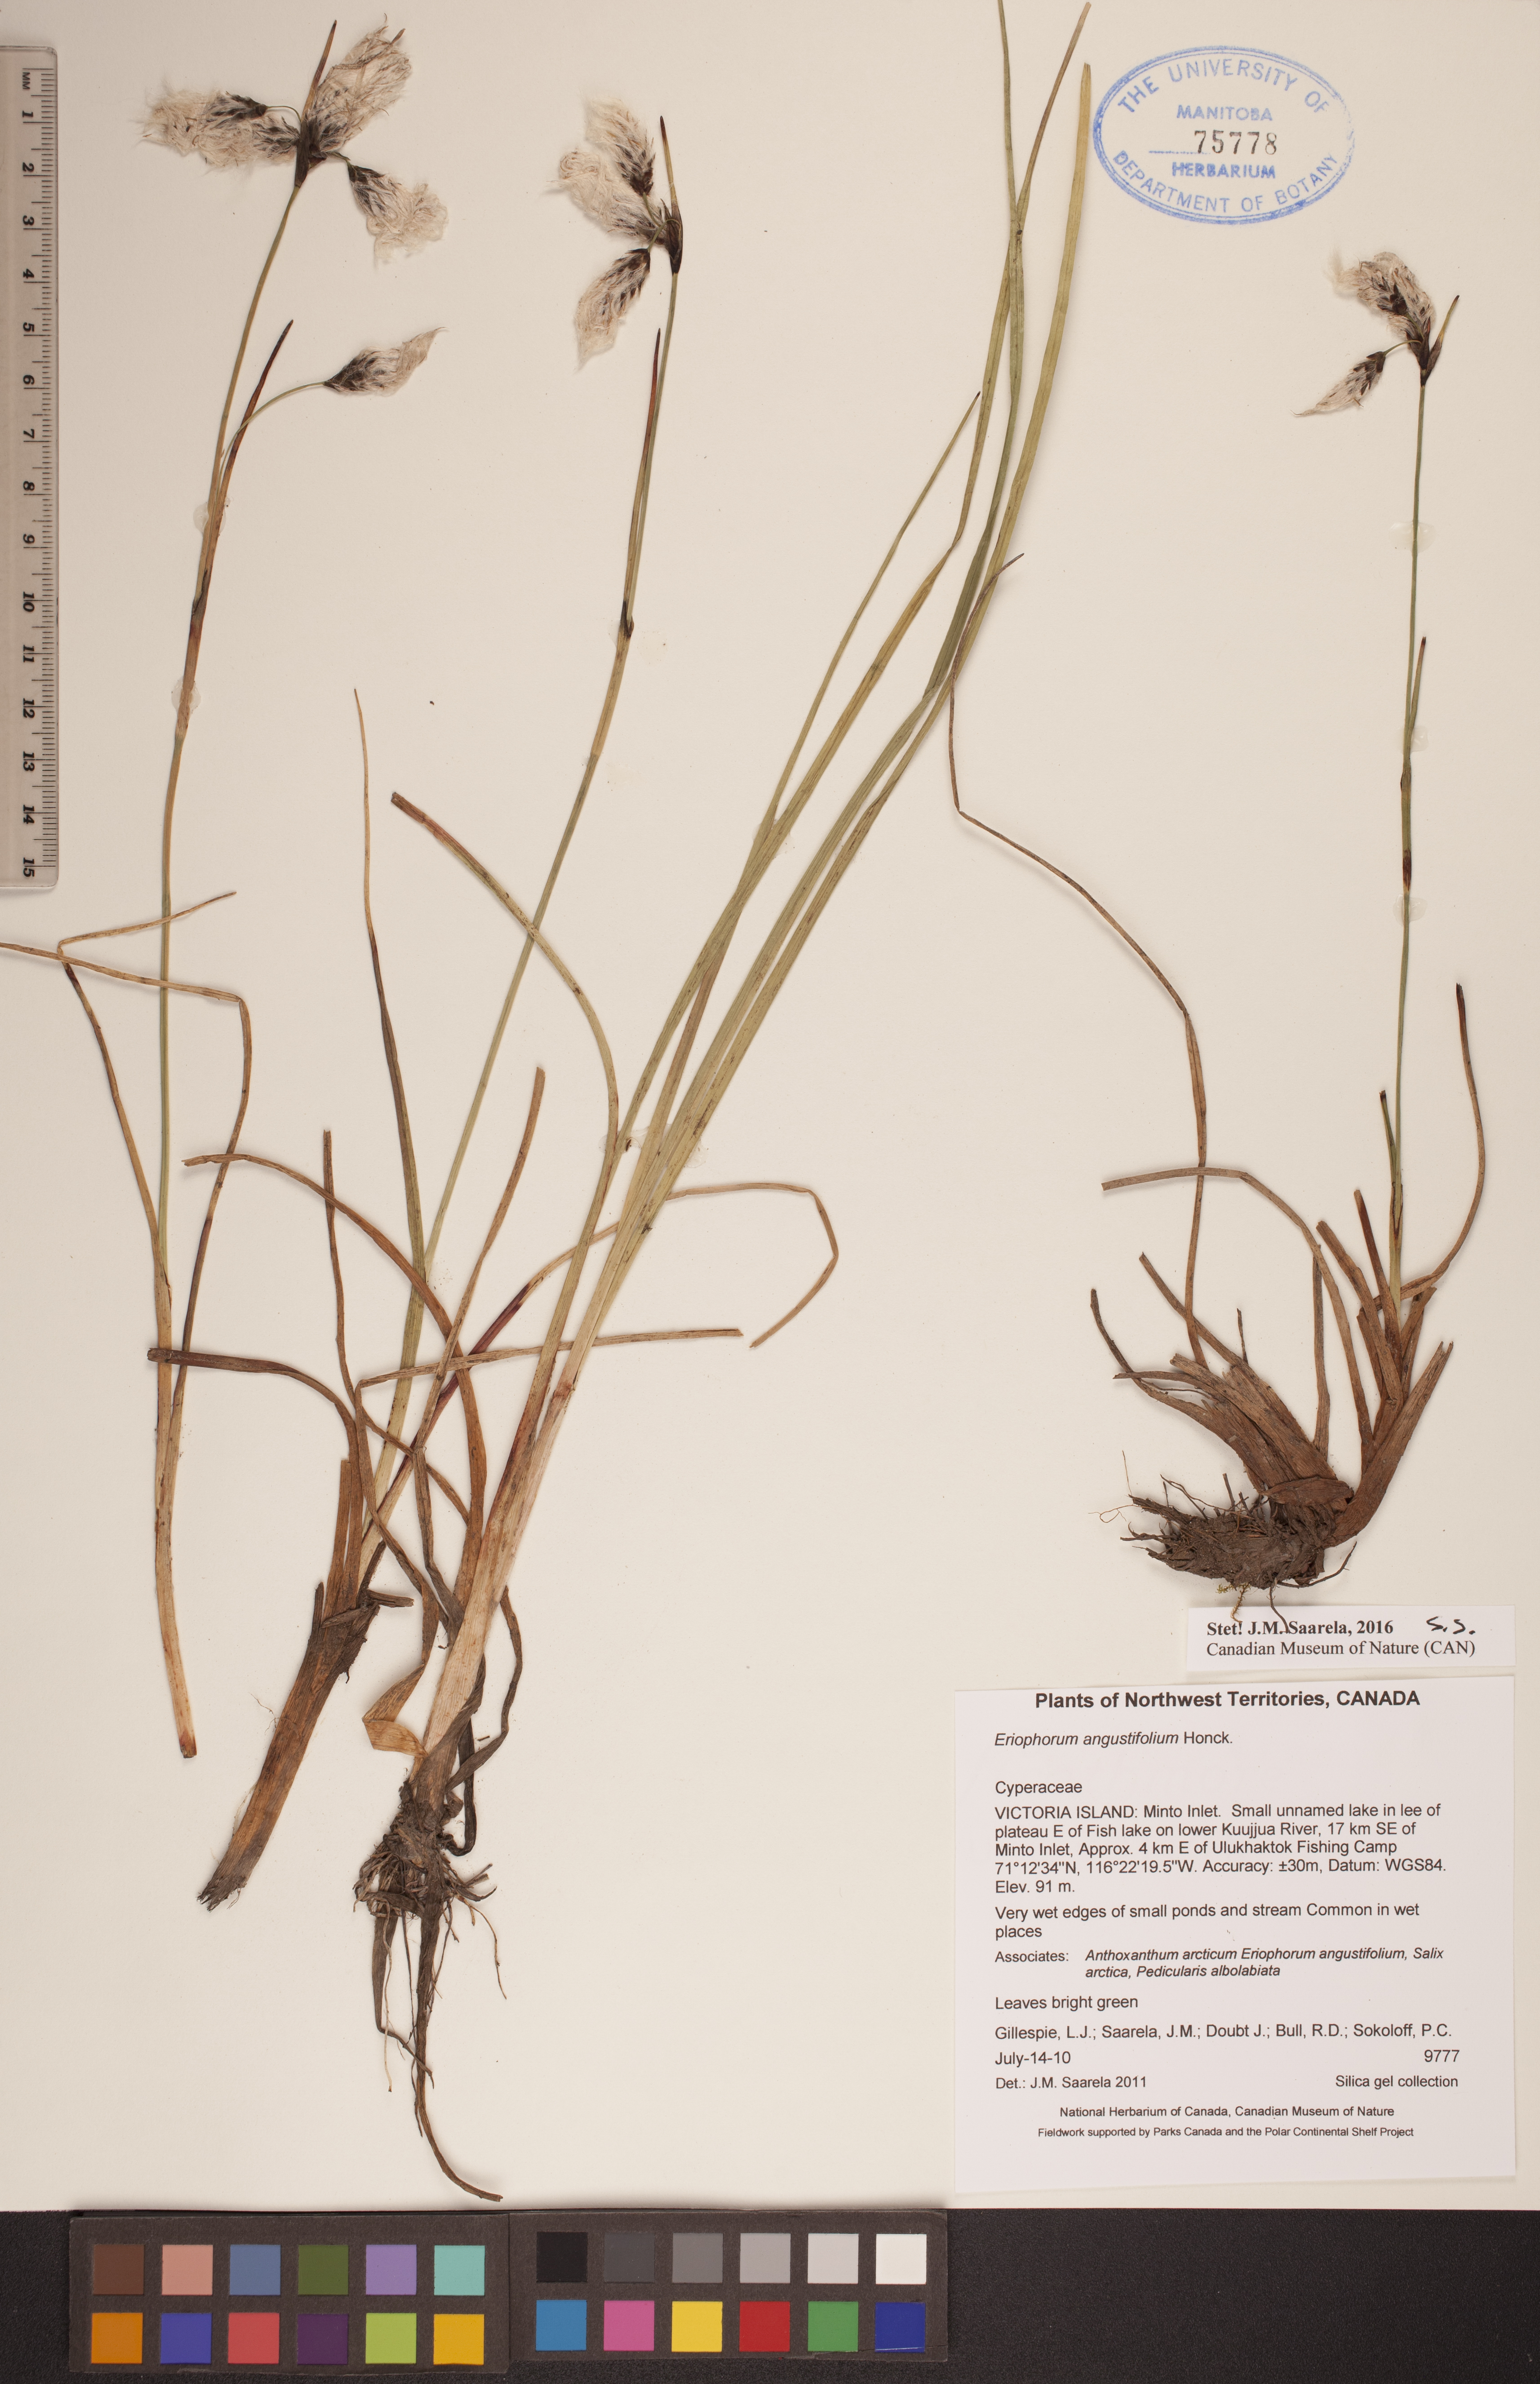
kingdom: Plantae
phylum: Tracheophyta
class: Liliopsida
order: Poales
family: Cyperaceae
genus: Eriophorum
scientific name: Eriophorum angustifolium
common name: Common cottongrass
